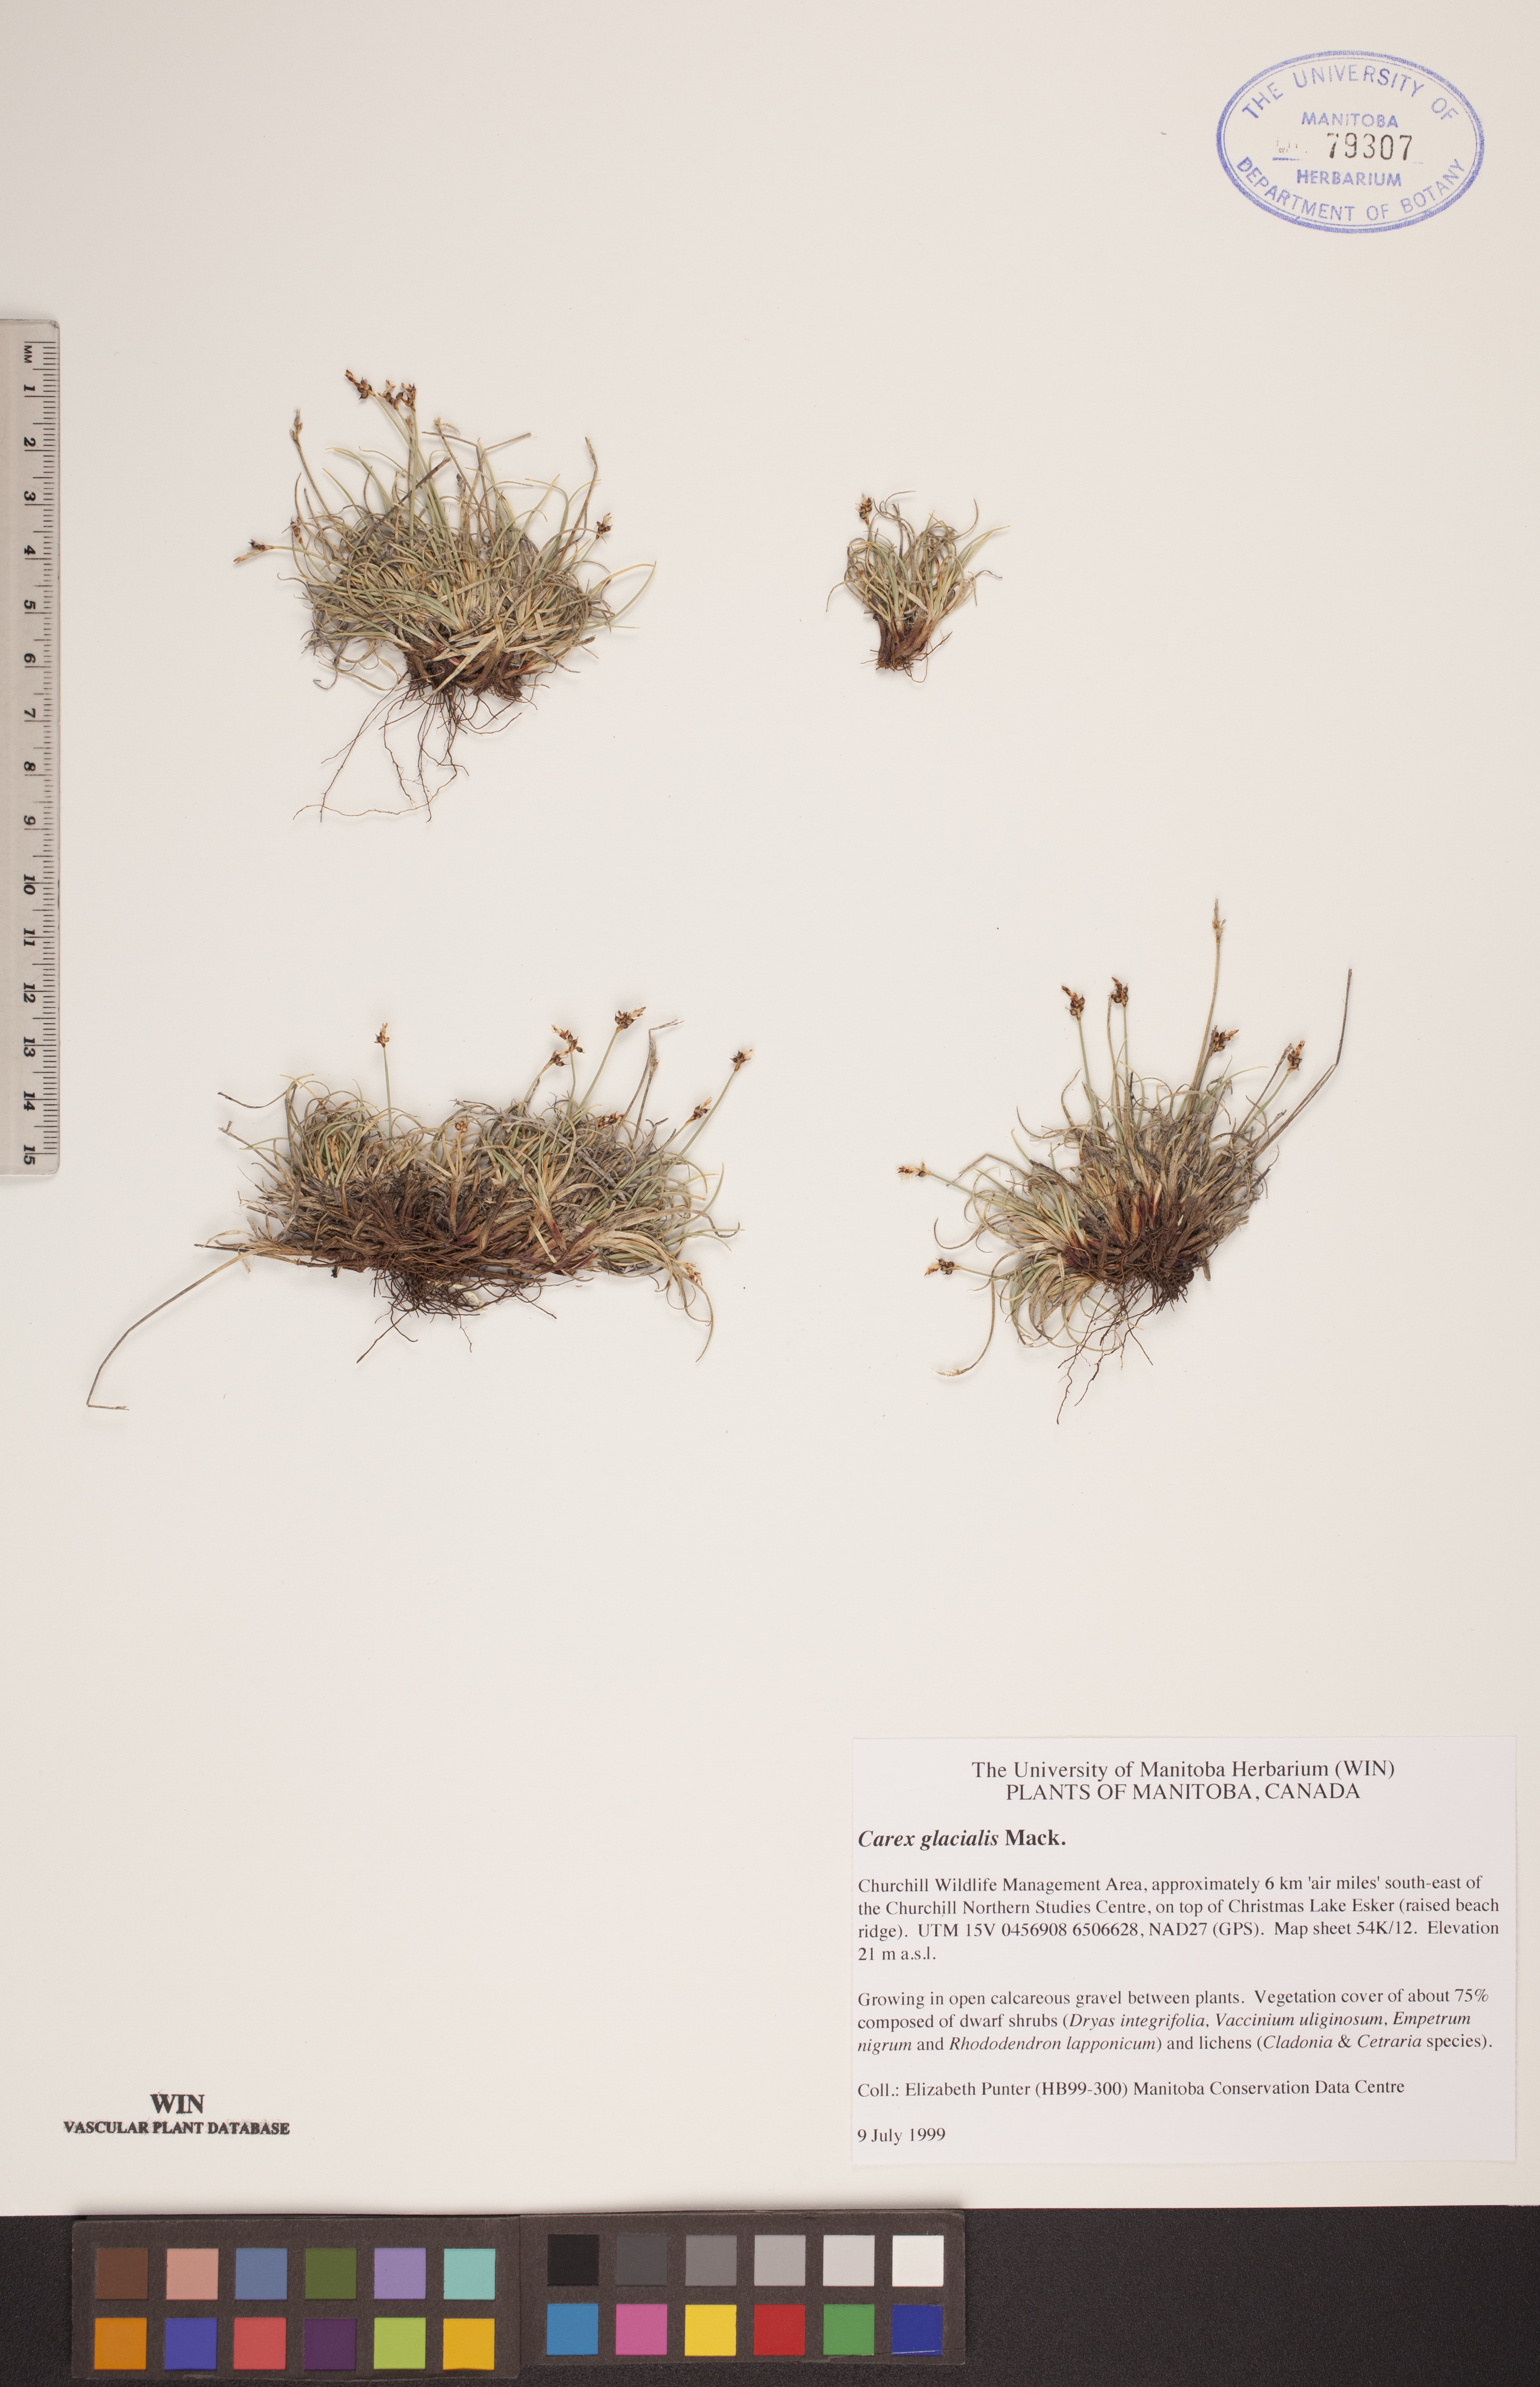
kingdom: Plantae
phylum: Tracheophyta
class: Liliopsida
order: Poales
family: Cyperaceae
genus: Carex
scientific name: Carex glacialis
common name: Newfoundland sedge
